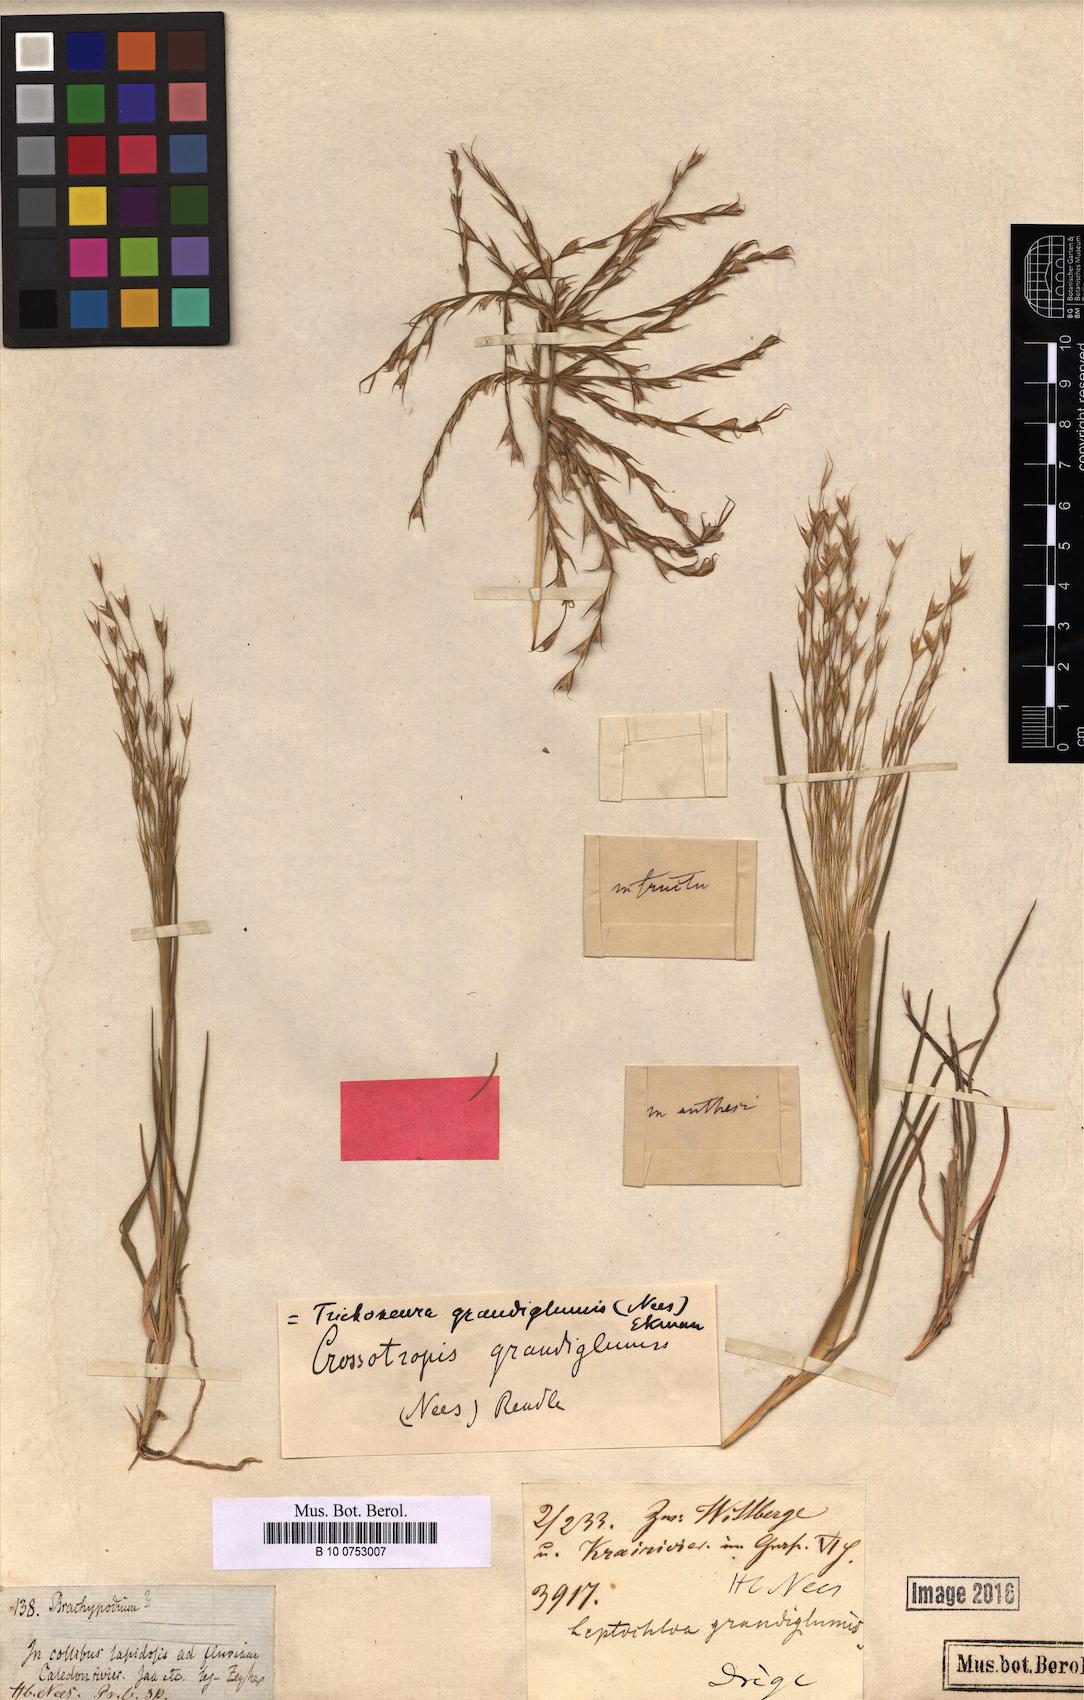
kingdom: Plantae
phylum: Tracheophyta
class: Liliopsida
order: Poales
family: Poaceae
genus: Trichoneura
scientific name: Trichoneura grandiglumis
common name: Rolling grass
